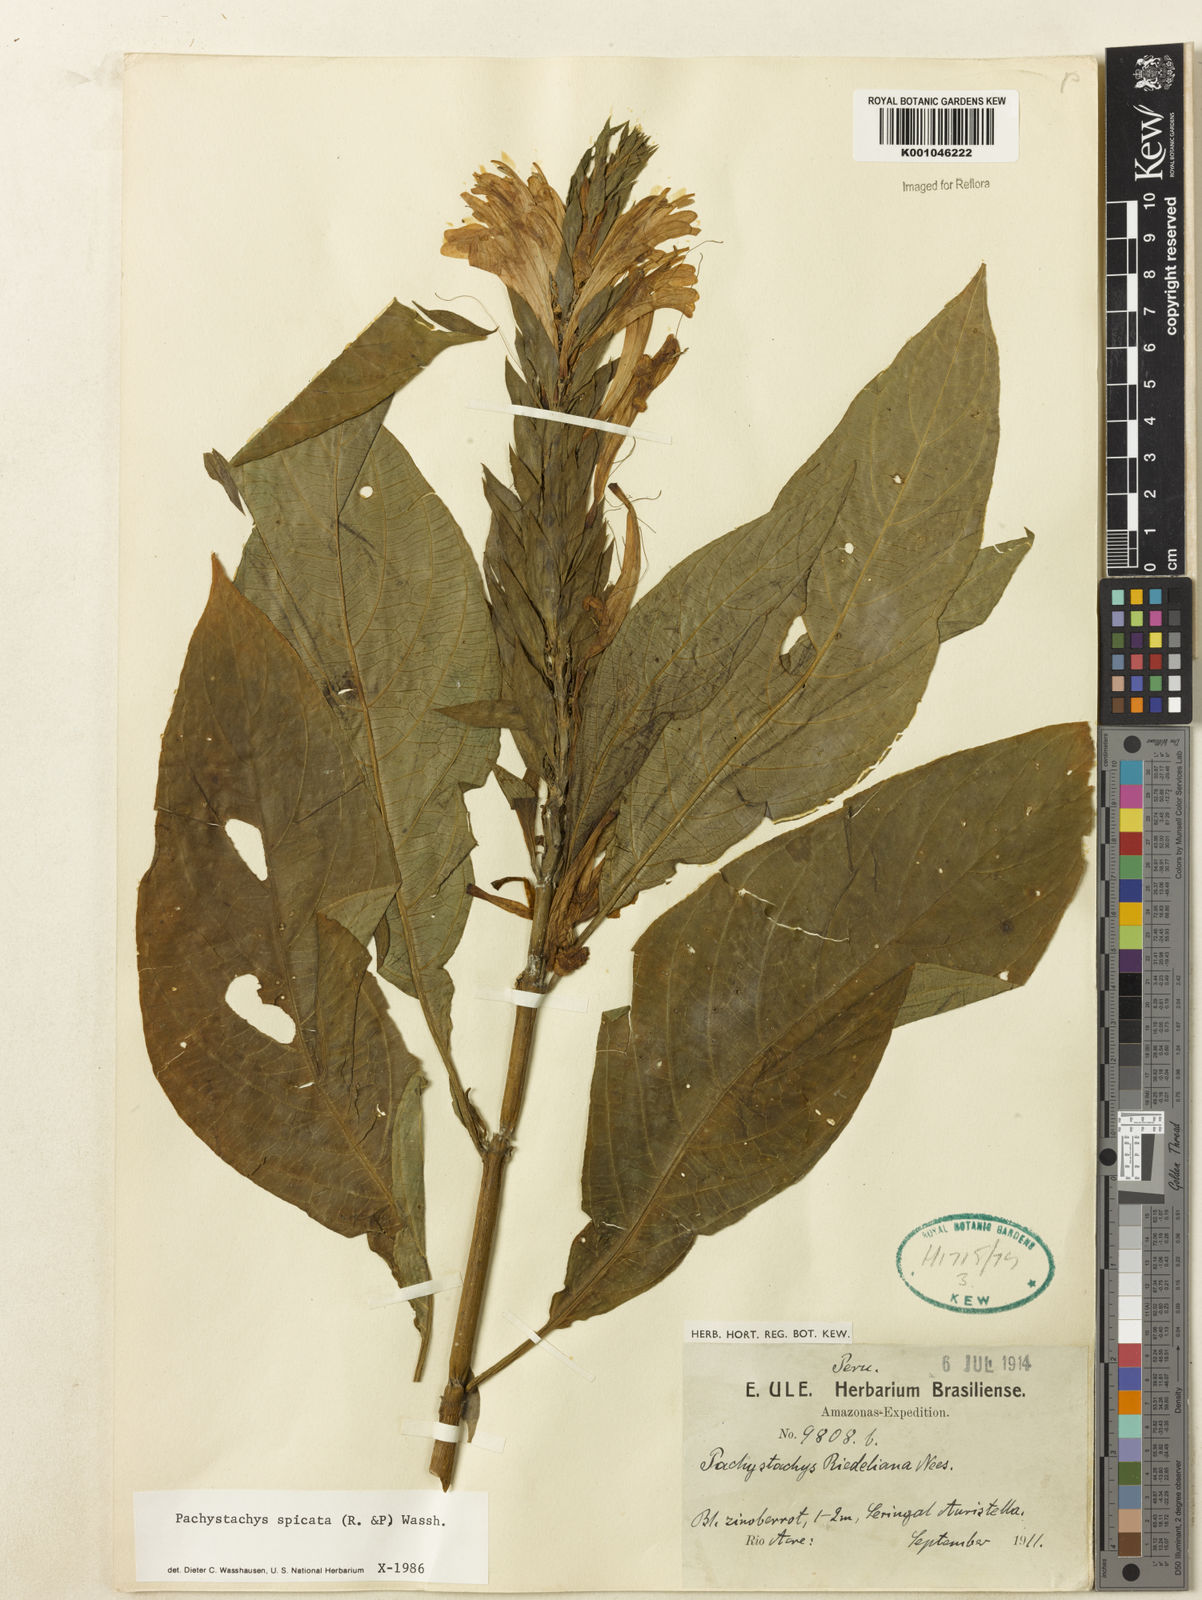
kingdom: Plantae
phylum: Tracheophyta
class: Magnoliopsida
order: Lamiales
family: Acanthaceae
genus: Pachystachys
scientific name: Pachystachys spicata
